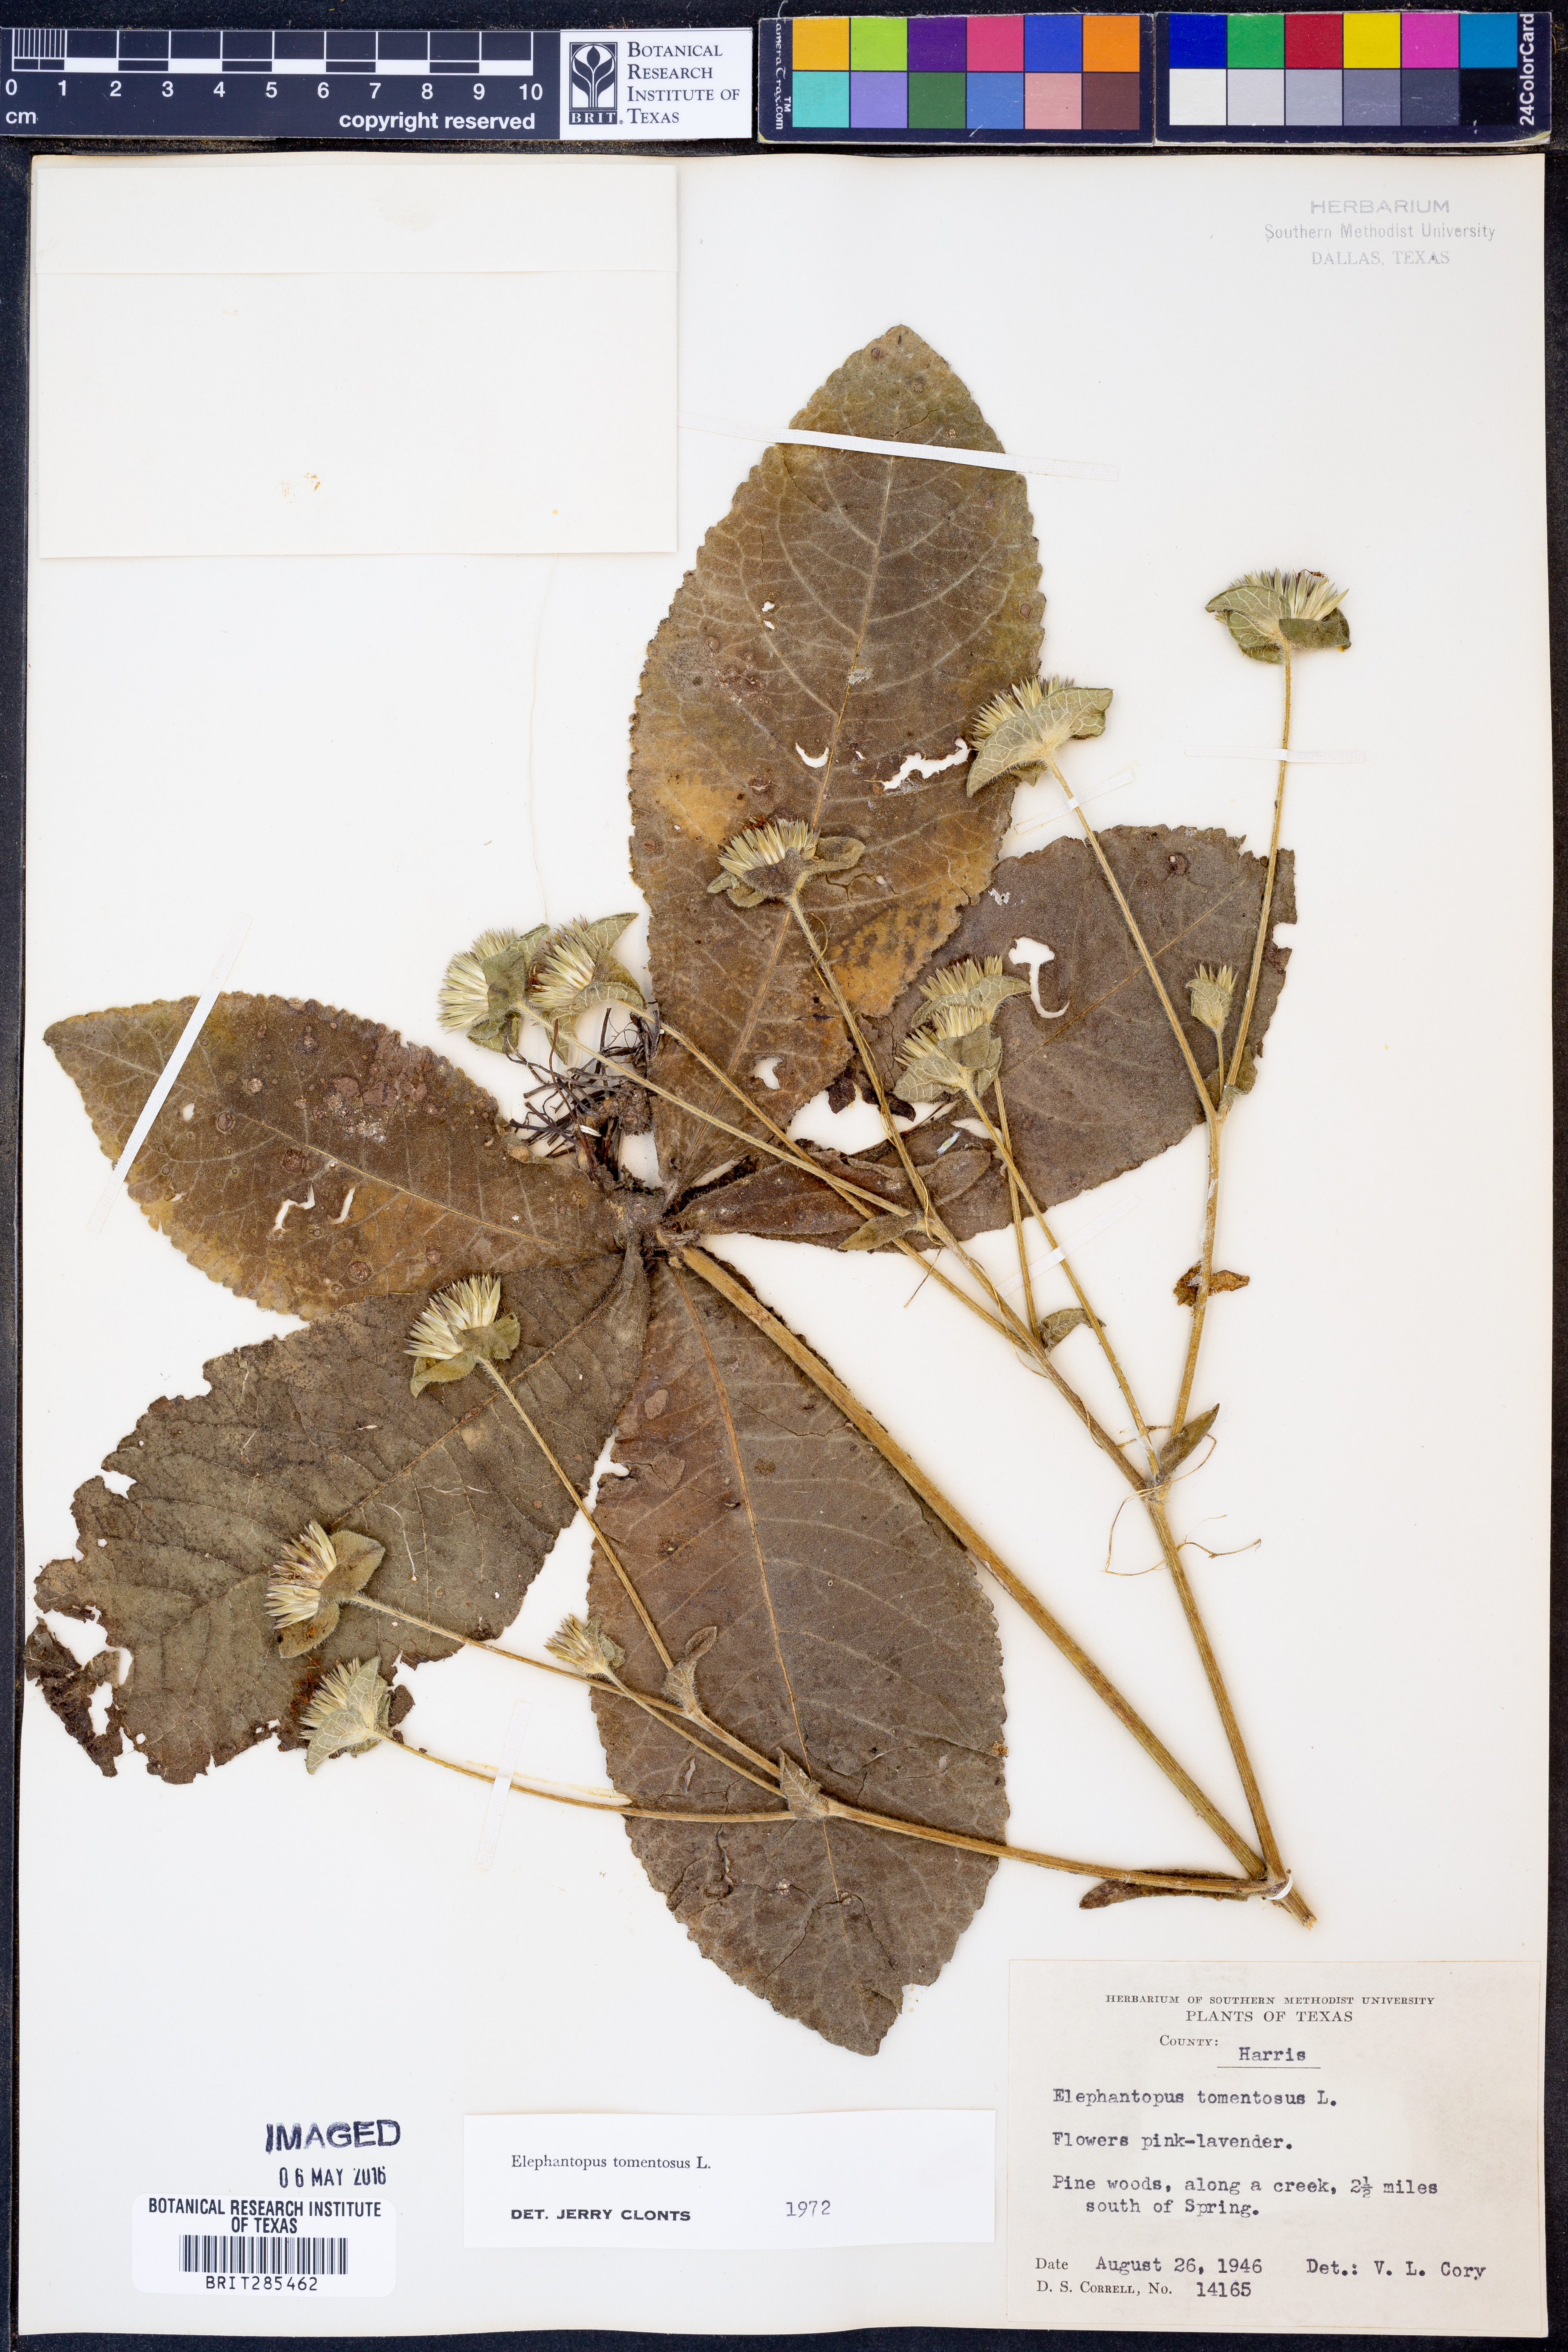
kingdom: Plantae
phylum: Tracheophyta
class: Magnoliopsida
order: Asterales
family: Asteraceae
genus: Elephantopus
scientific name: Elephantopus tomentosus
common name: Tobacco-weed
